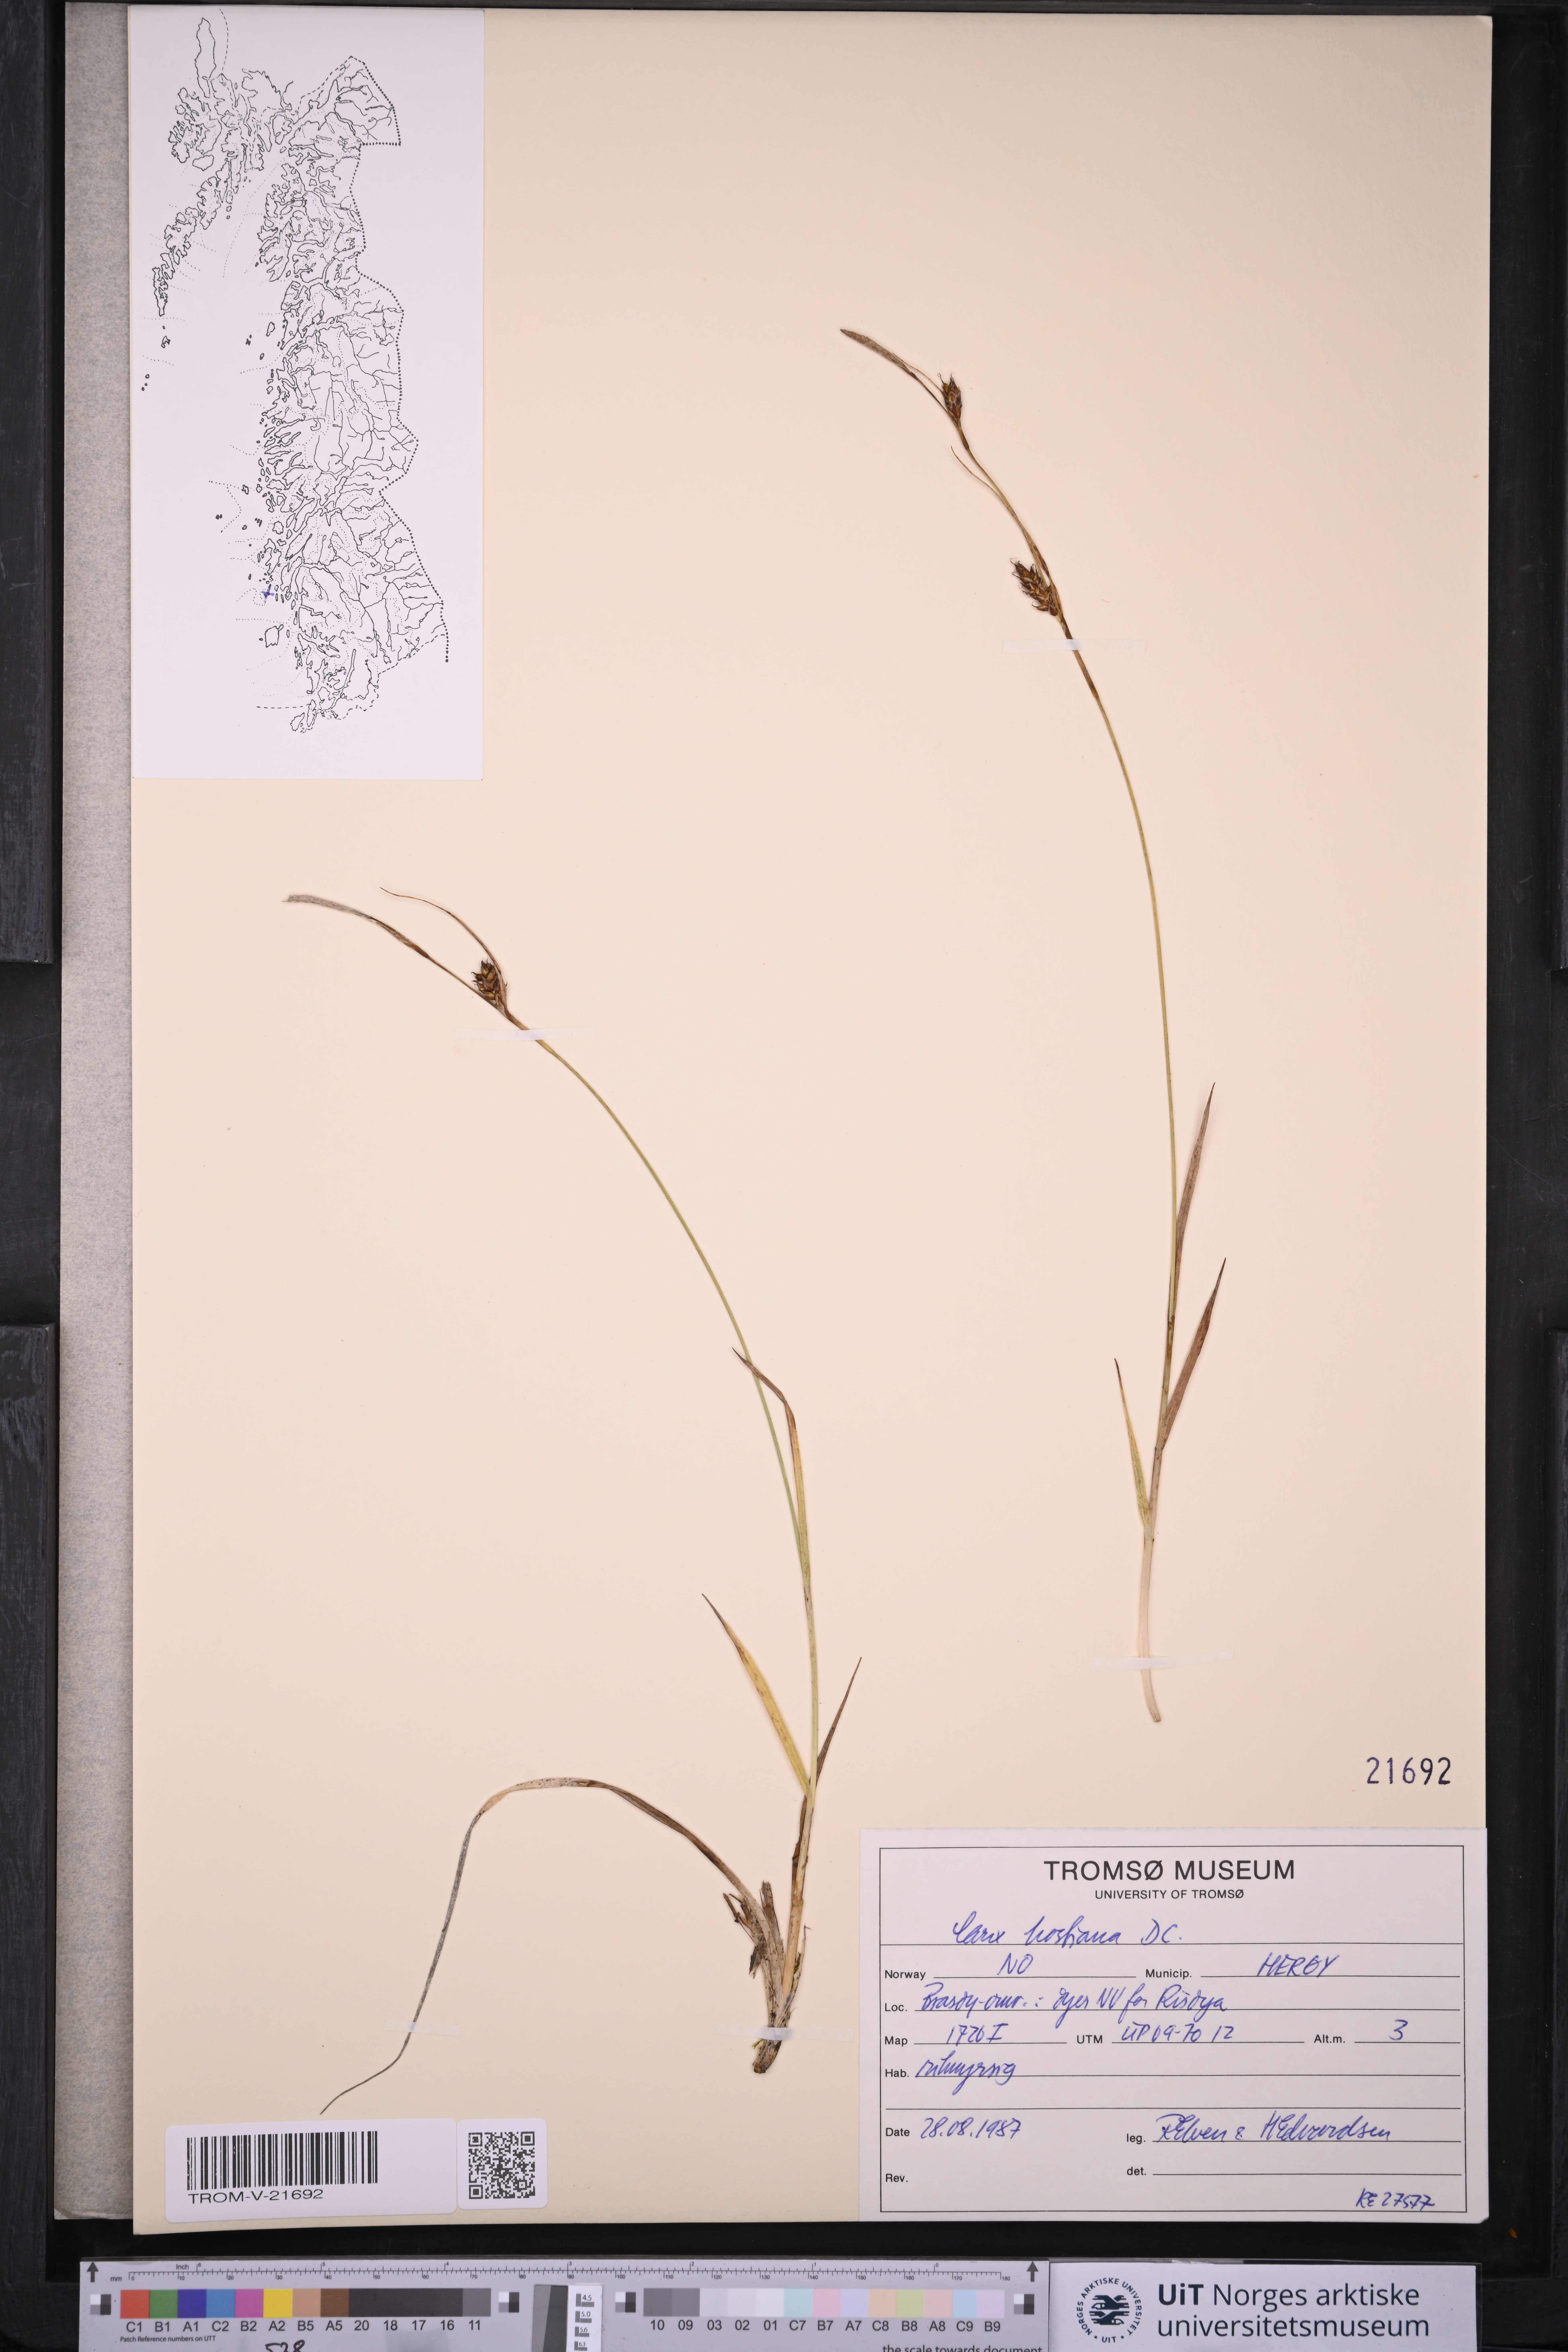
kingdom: Plantae
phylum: Tracheophyta
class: Liliopsida
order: Poales
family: Cyperaceae
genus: Carex
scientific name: Carex hostiana
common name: Tawny sedge
